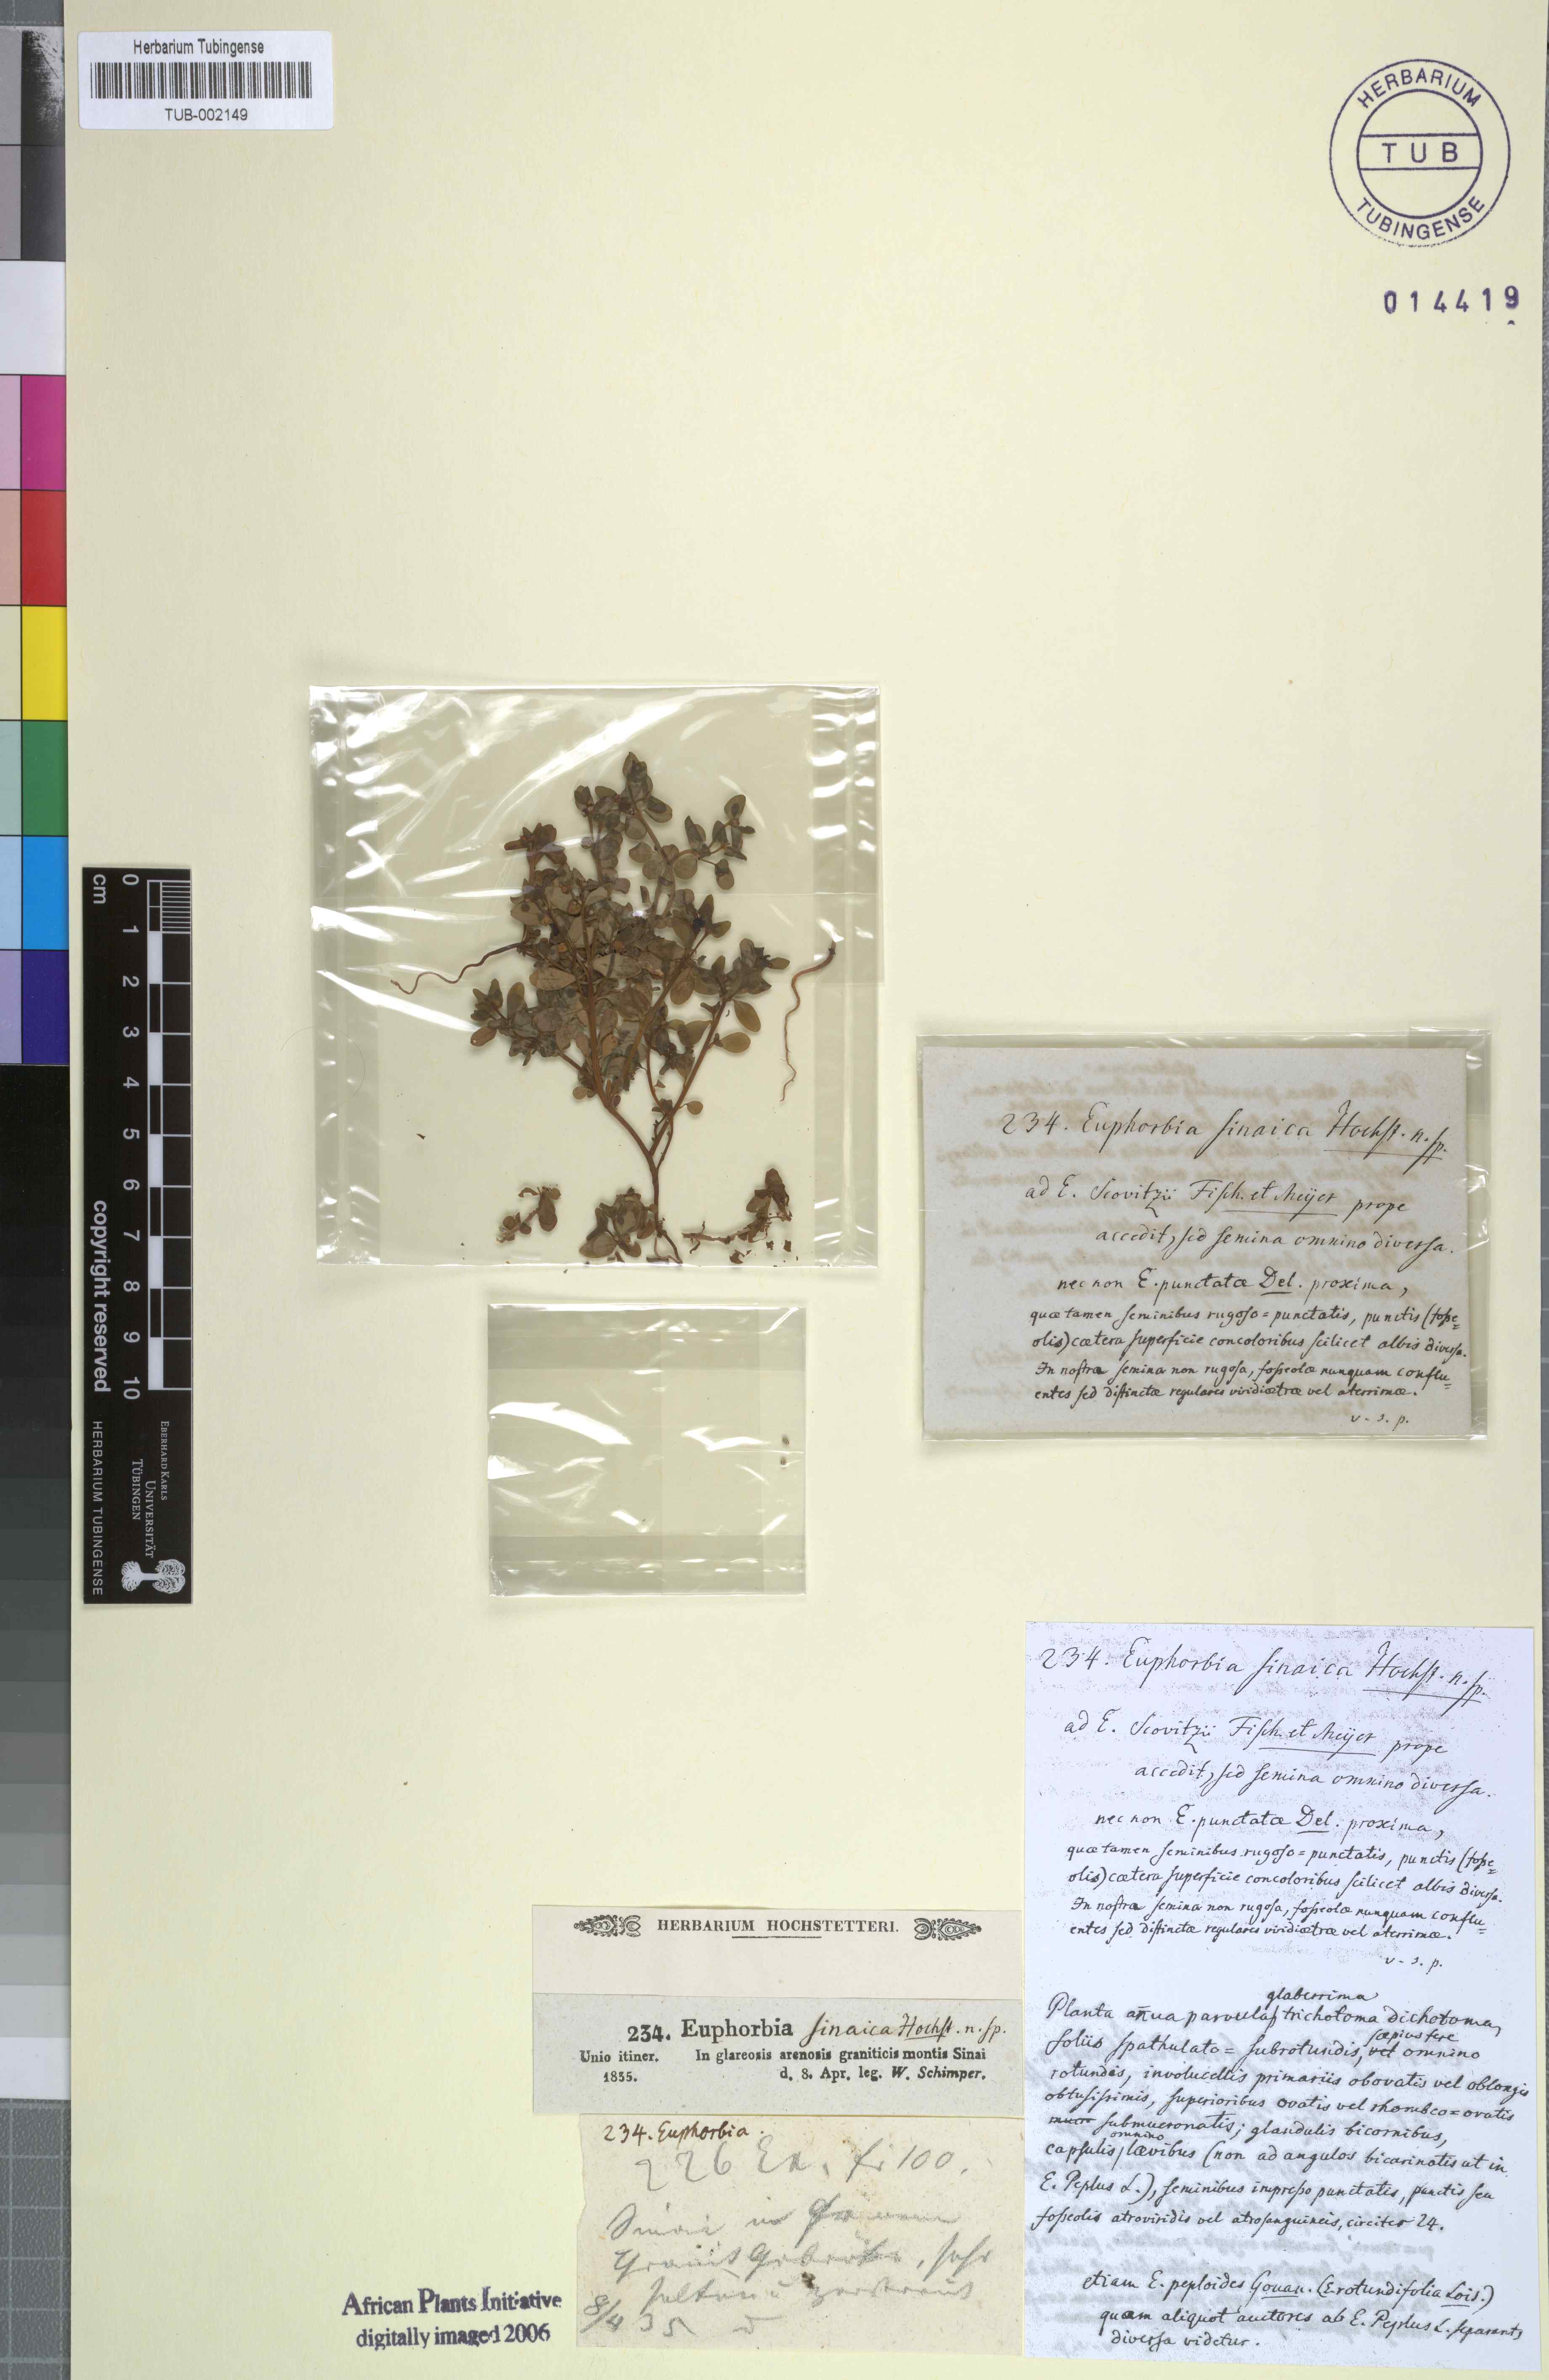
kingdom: Plantae
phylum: Tracheophyta
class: Magnoliopsida
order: Malpighiales
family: Euphorbiaceae
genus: Euphorbia
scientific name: Euphorbia chamaepeplus
